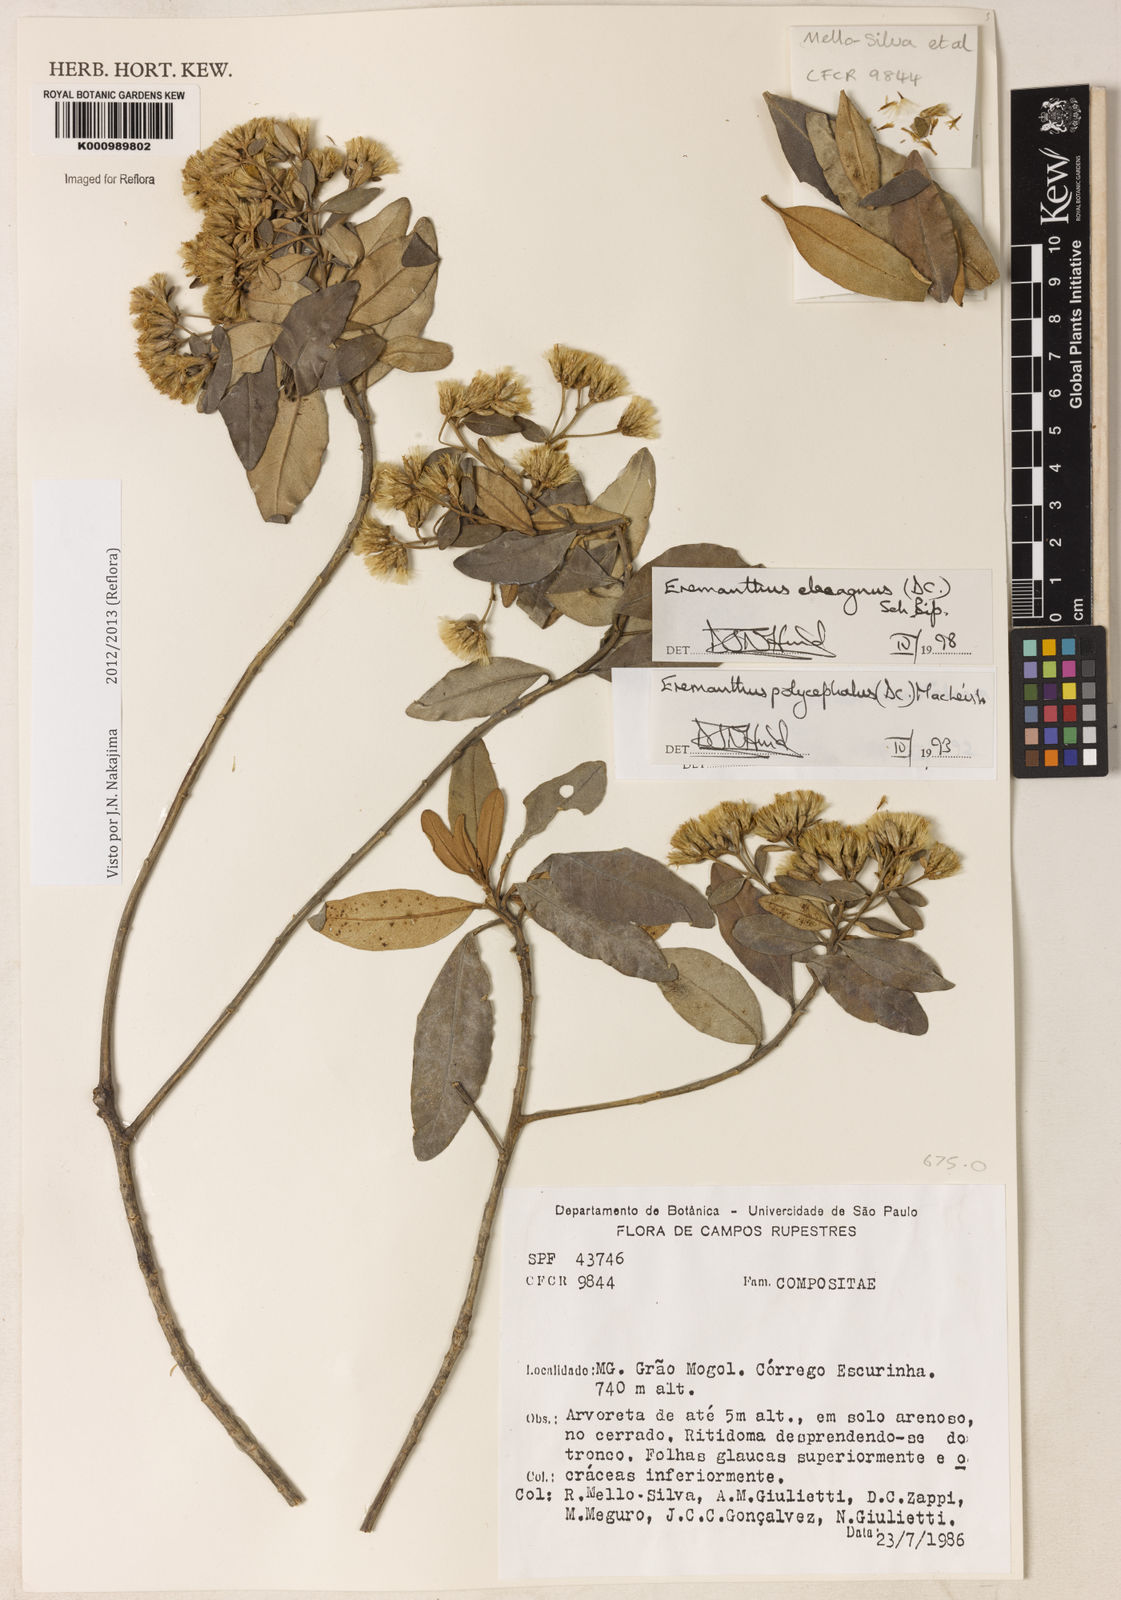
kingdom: Plantae
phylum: Tracheophyta
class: Magnoliopsida
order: Asterales
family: Asteraceae
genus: Eremanthus
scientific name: Eremanthus elaeagnus
